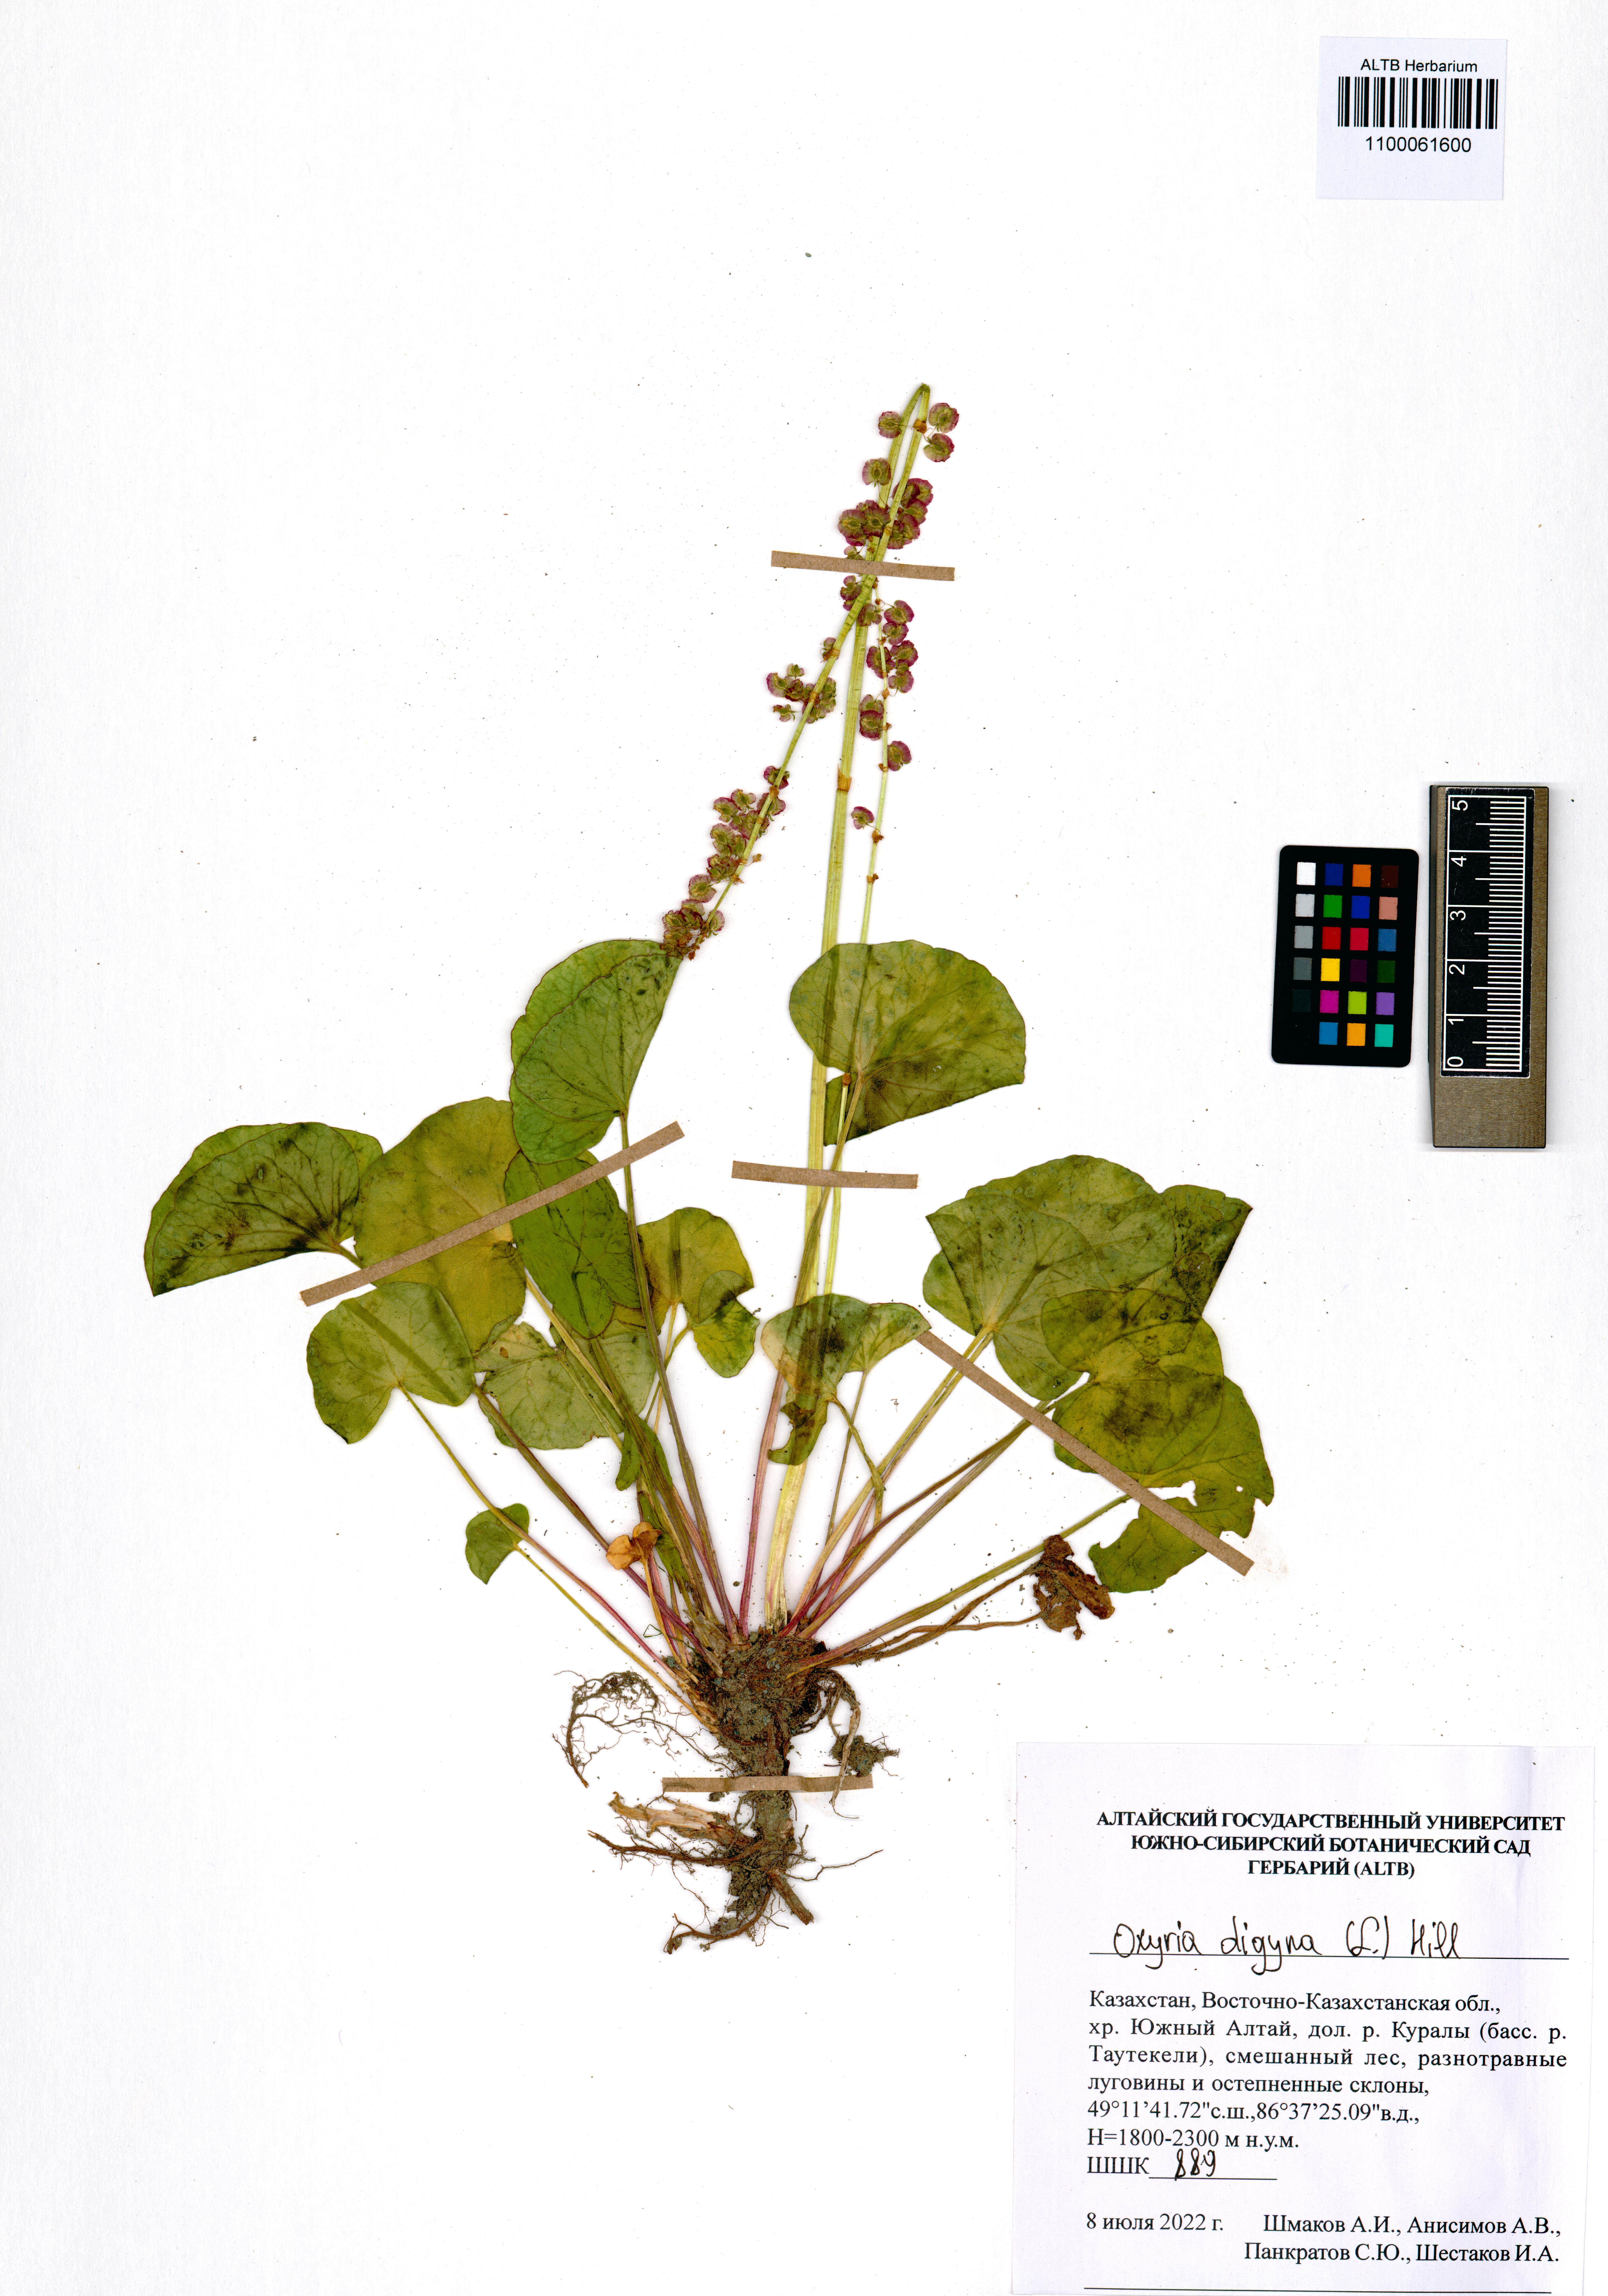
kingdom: Plantae
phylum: Tracheophyta
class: Magnoliopsida
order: Caryophyllales
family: Polygonaceae
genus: Oxyria
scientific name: Oxyria digyna
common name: Alpine mountain-sorrel
